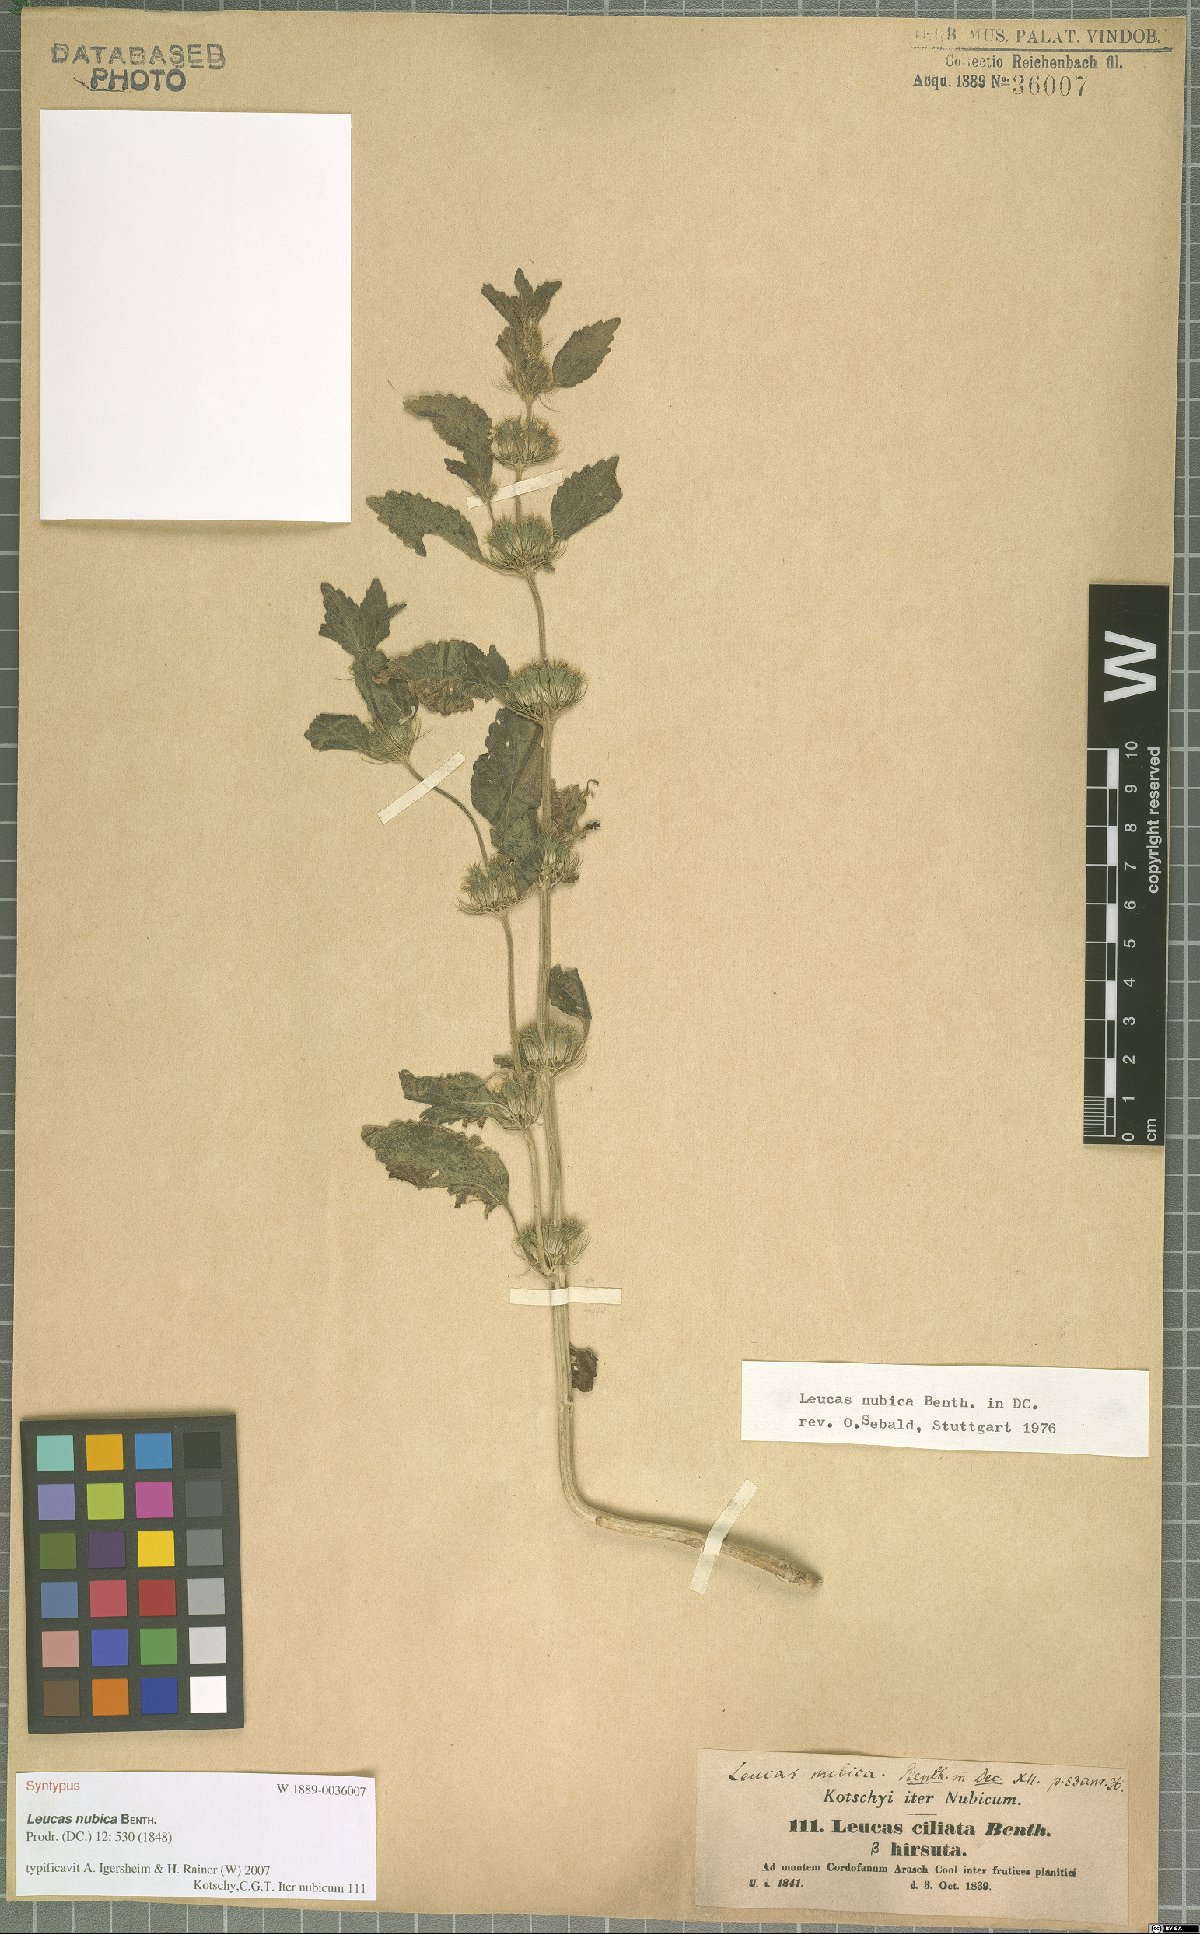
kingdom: Plantae
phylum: Tracheophyta
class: Magnoliopsida
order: Lamiales
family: Lamiaceae
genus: Leucas
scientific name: Leucas nubica
